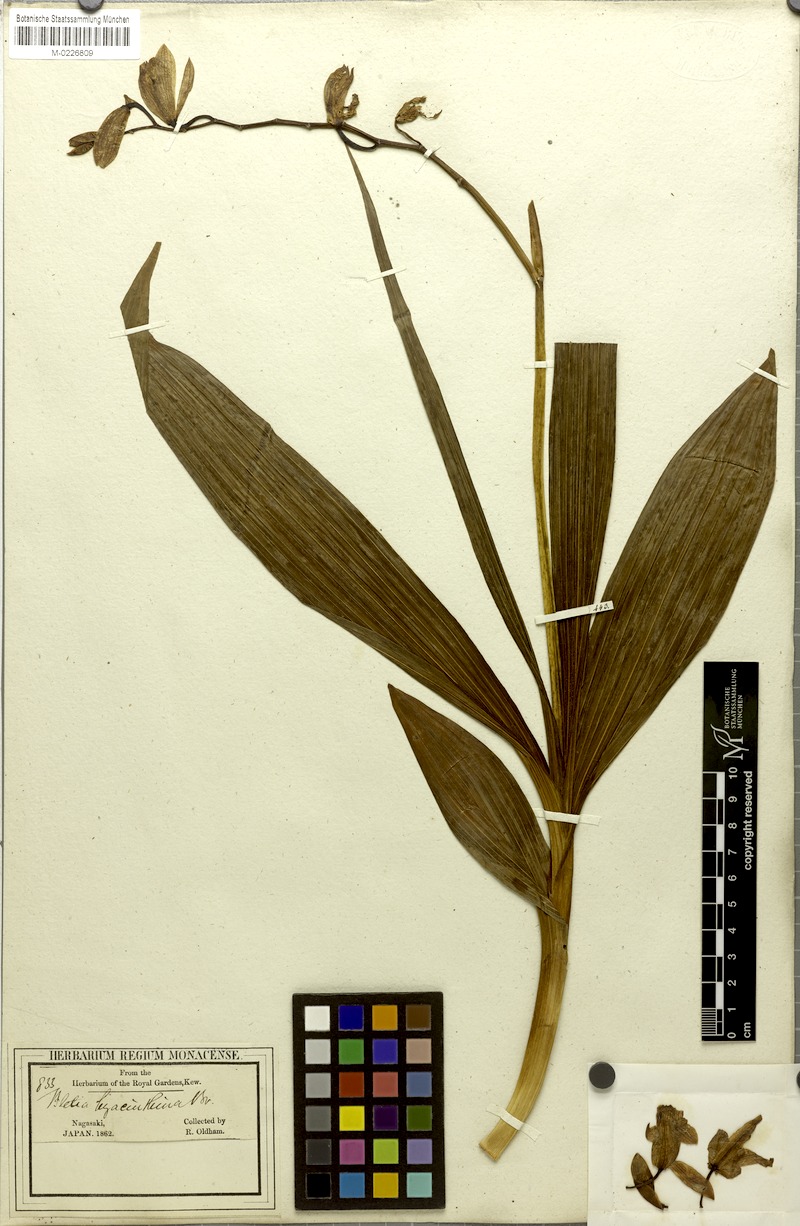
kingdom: Plantae
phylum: Tracheophyta
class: Liliopsida
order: Asparagales
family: Orchidaceae
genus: Bletilla
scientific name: Bletilla striata
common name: Hyacinth orchid
